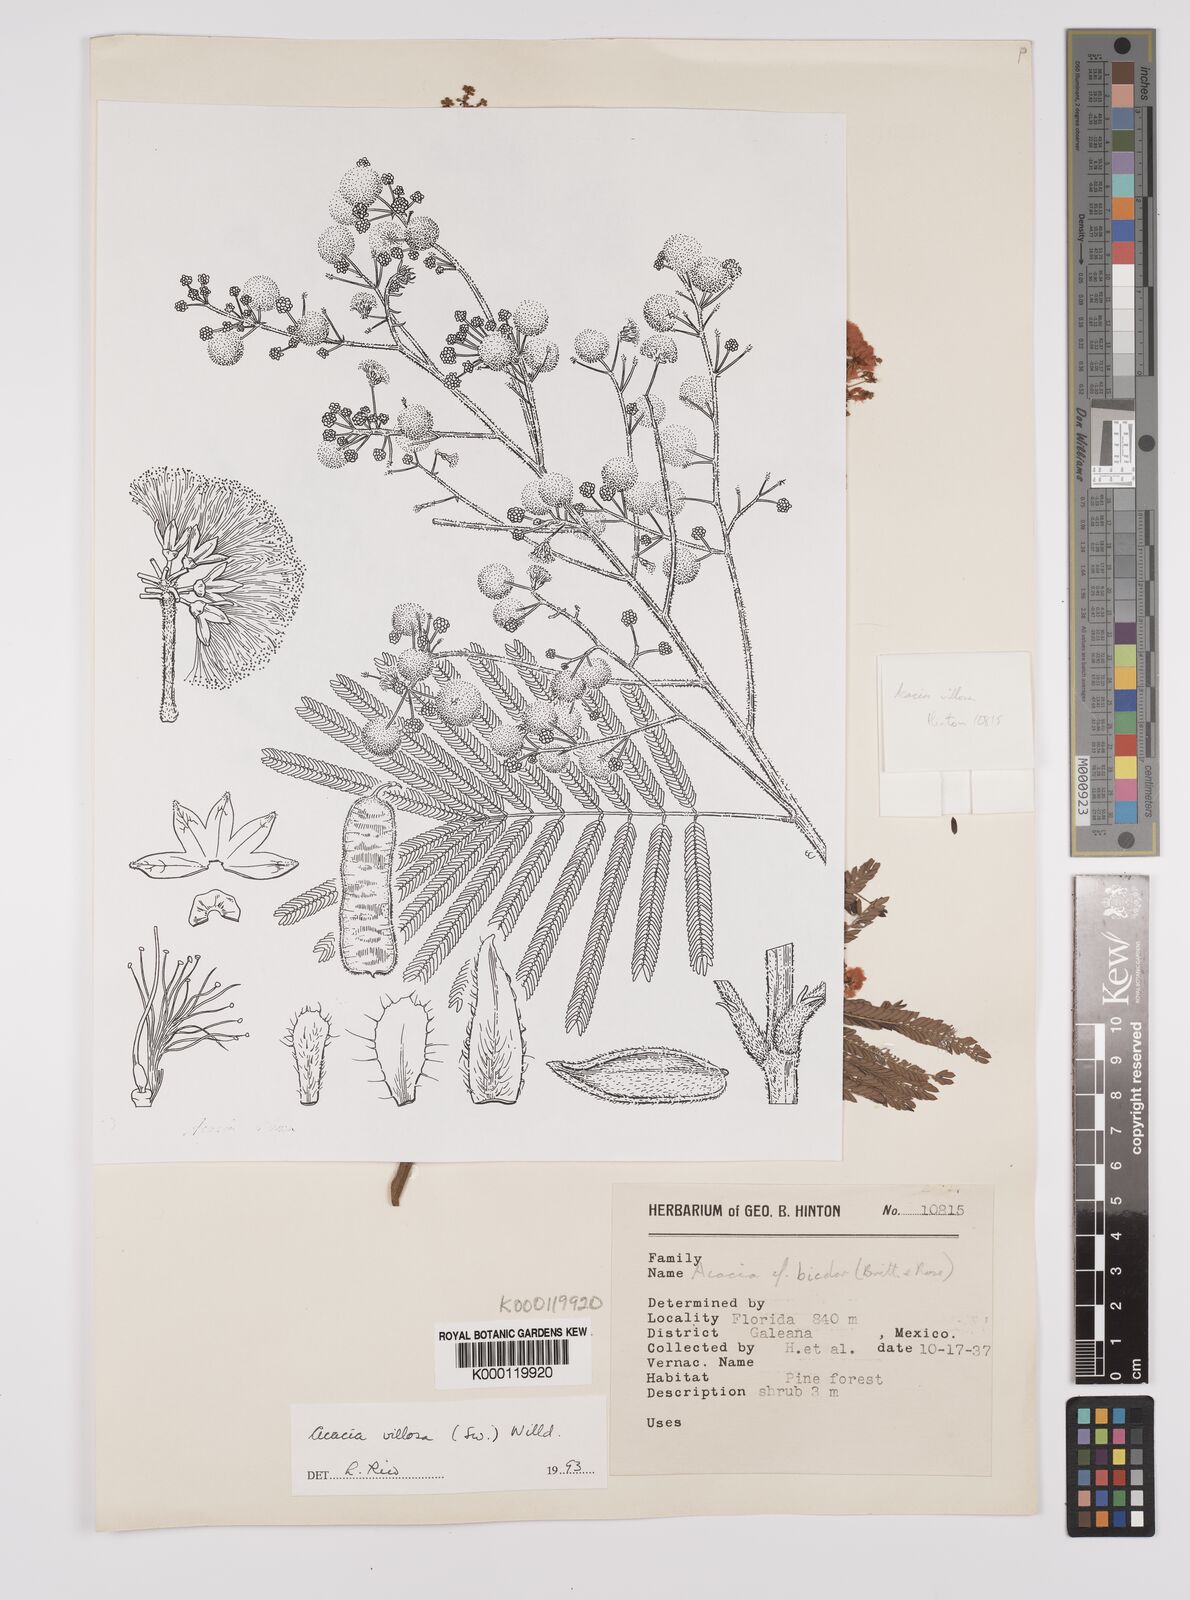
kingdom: Plantae
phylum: Tracheophyta
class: Magnoliopsida
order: Fabales
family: Fabaceae
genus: Acaciella
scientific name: Acaciella villosa
